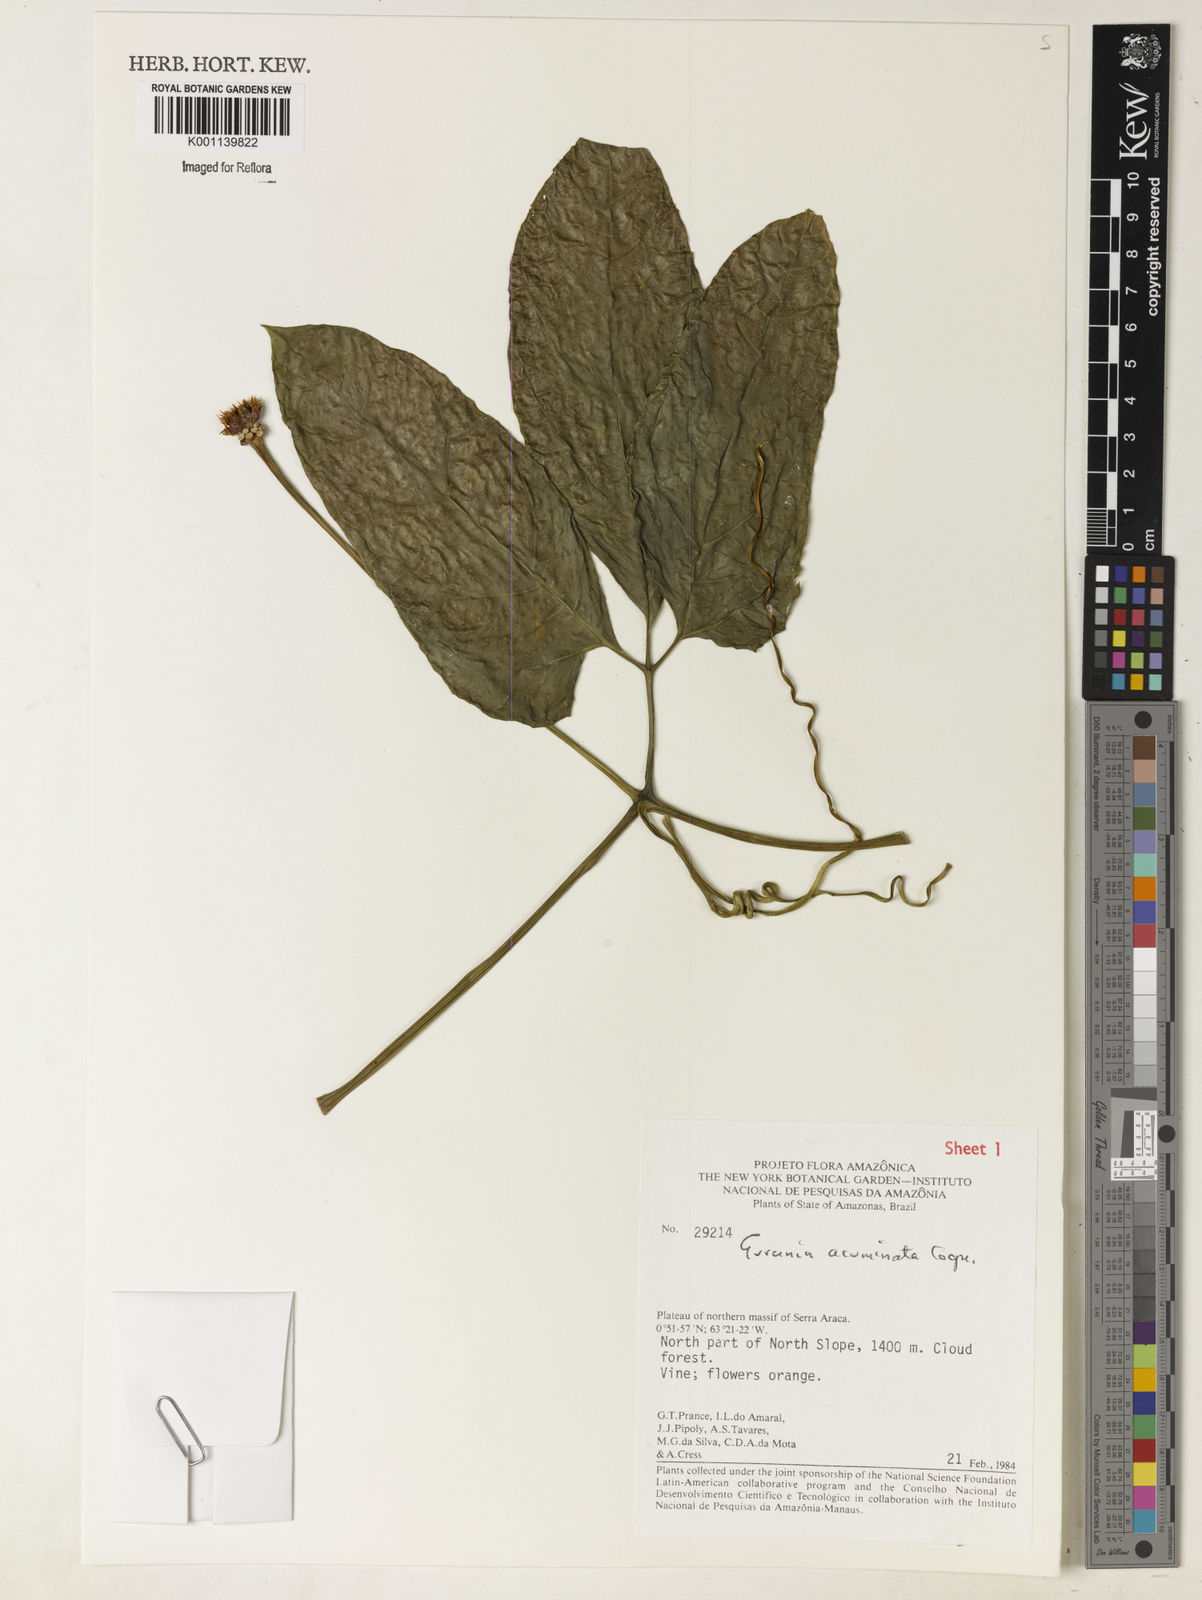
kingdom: Plantae
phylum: Tracheophyta
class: Magnoliopsida
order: Cucurbitales
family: Cucurbitaceae
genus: Gurania
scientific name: Gurania acuminata
